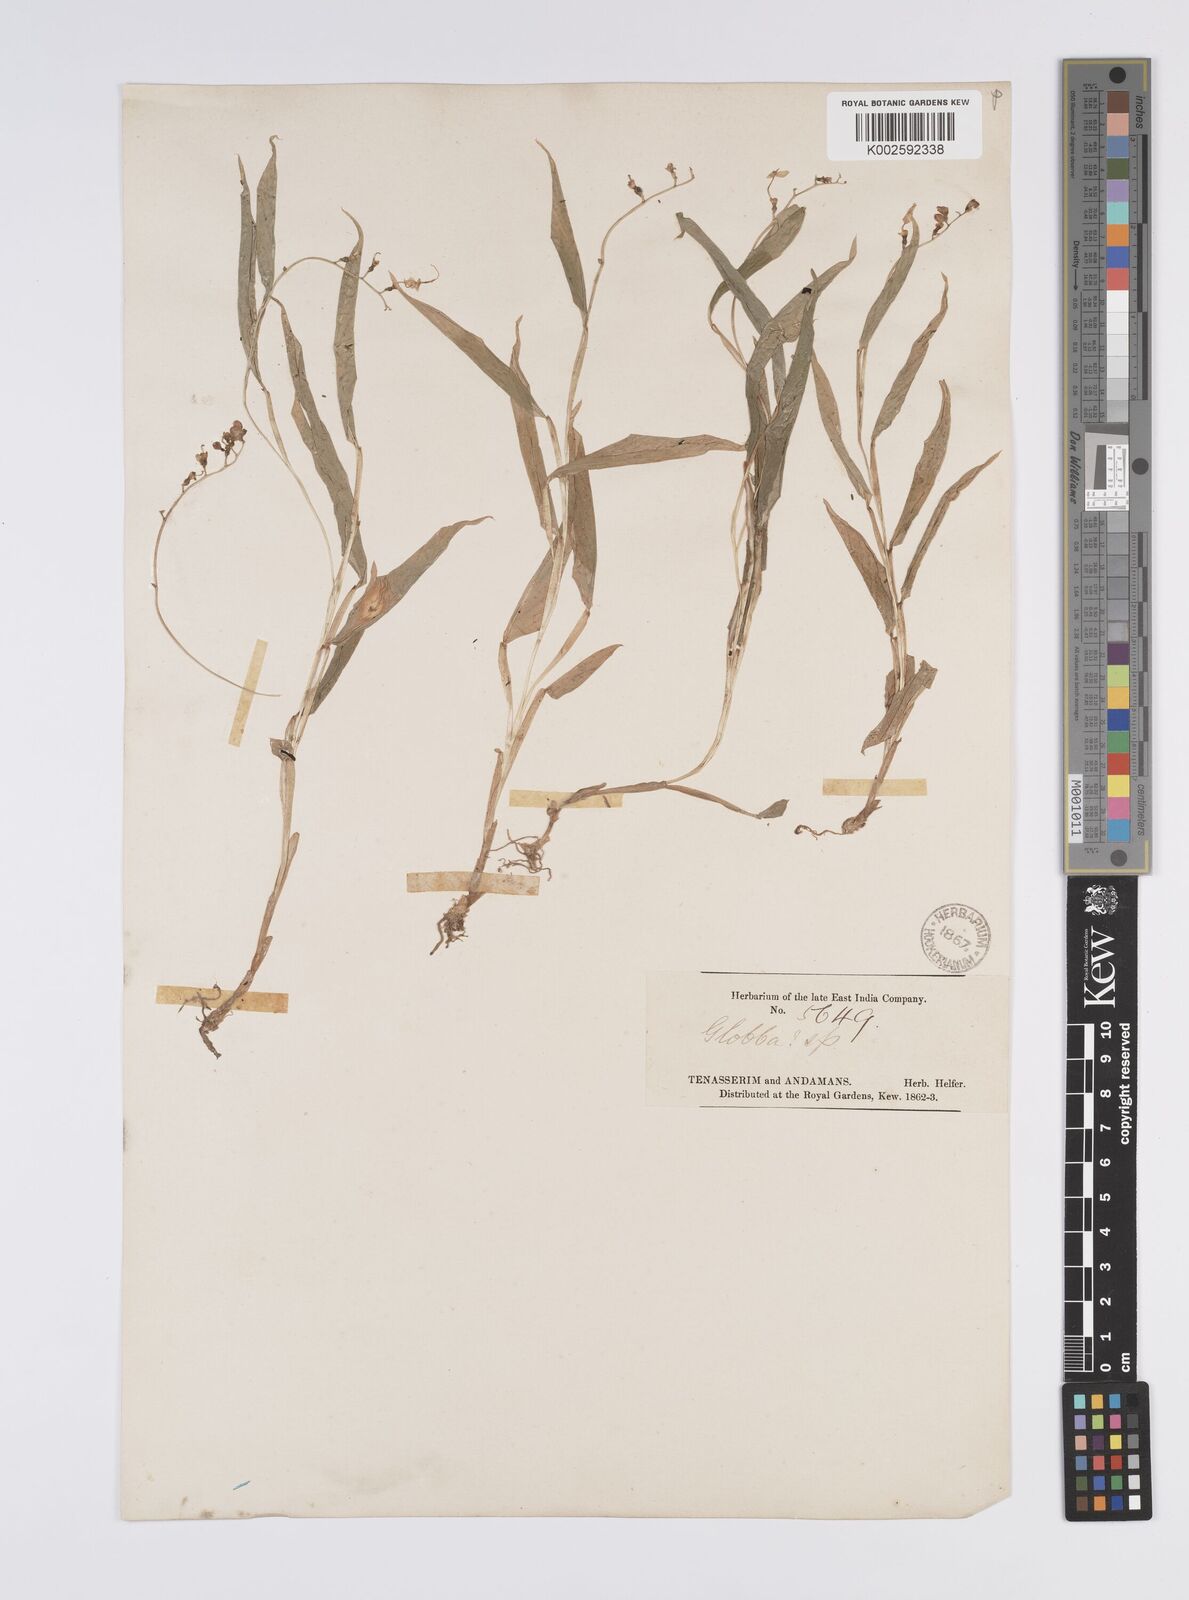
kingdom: Plantae
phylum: Tracheophyta
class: Liliopsida
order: Zingiberales
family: Zingiberaceae
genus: Globba
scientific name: Globba
